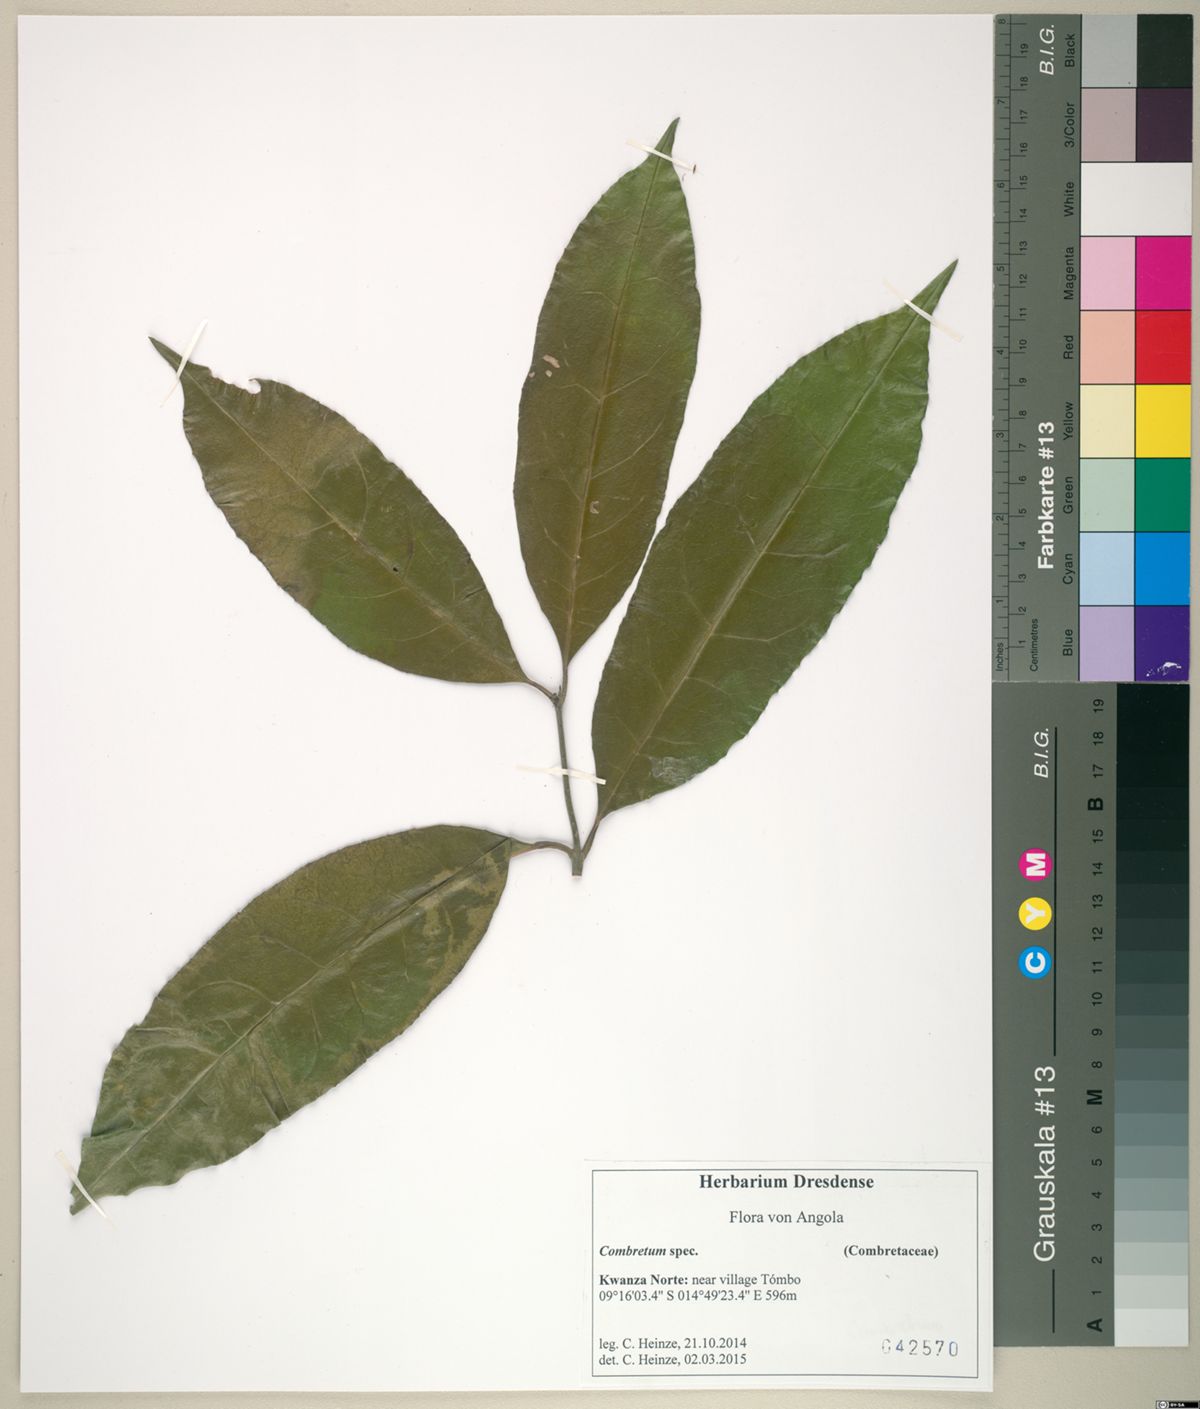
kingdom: Plantae
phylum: Tracheophyta
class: Magnoliopsida
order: Myrtales
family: Combretaceae
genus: Combretum
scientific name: Combretum
